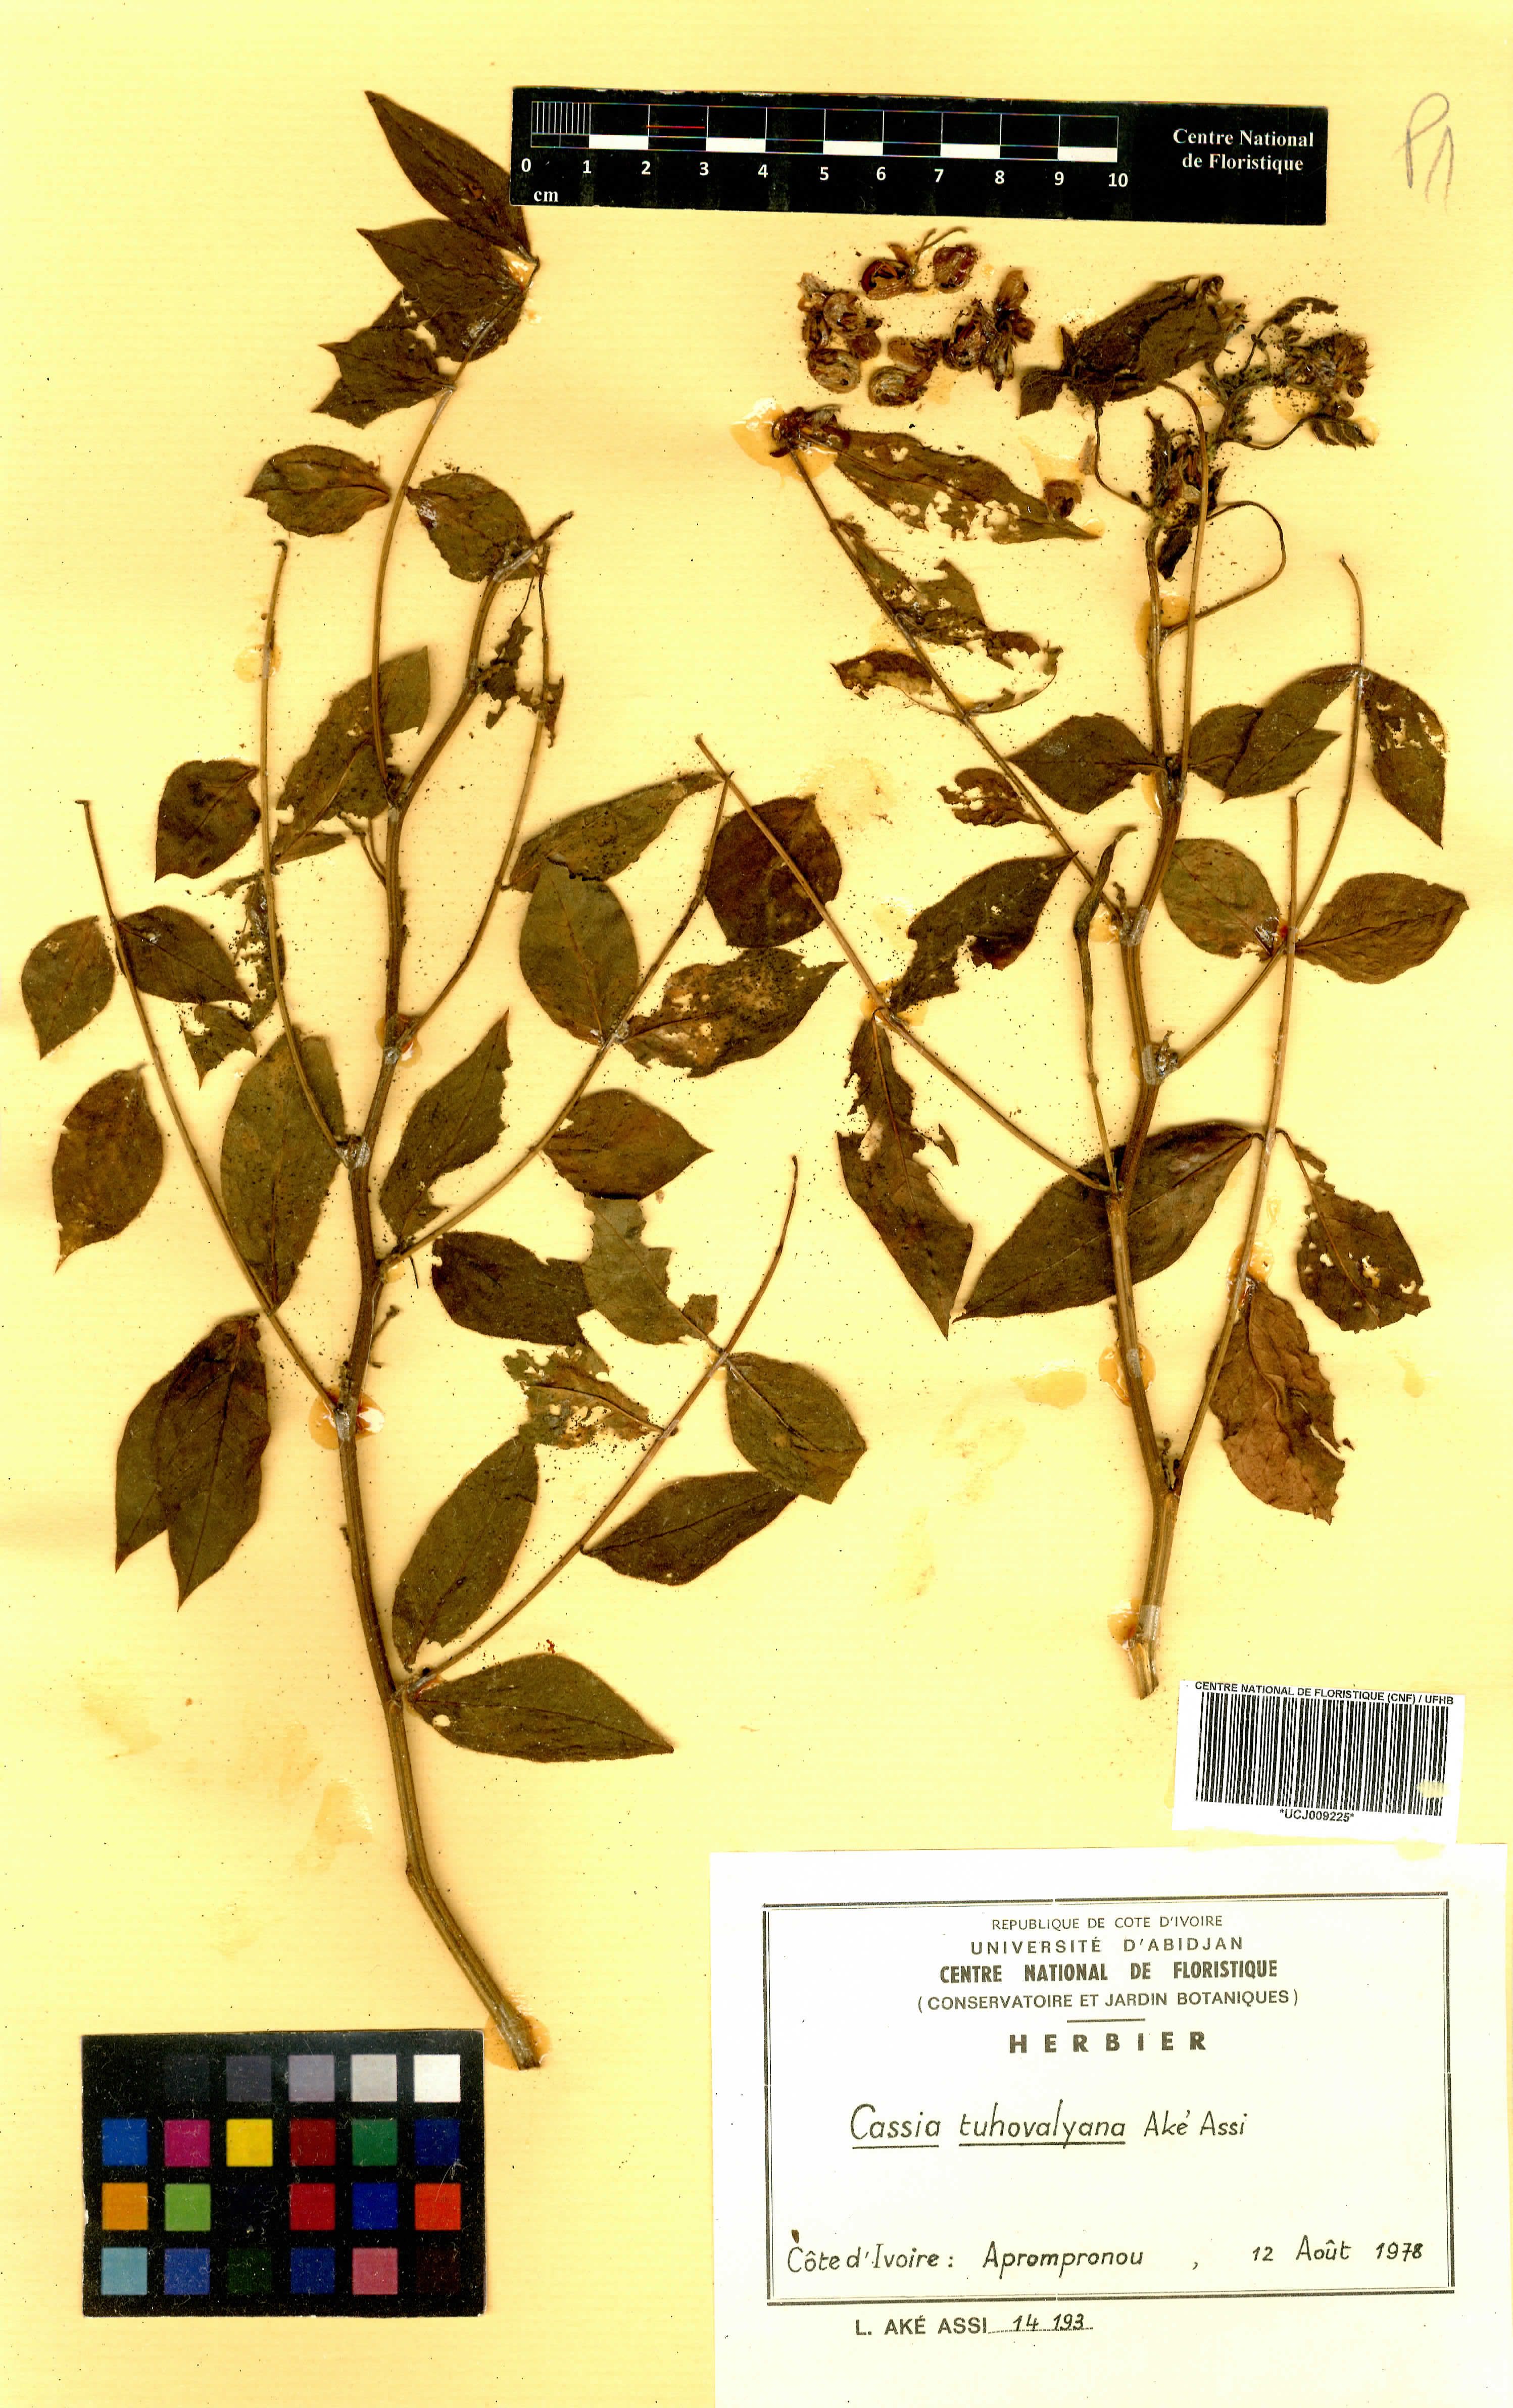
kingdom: Plantae
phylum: Tracheophyta
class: Magnoliopsida
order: Fabales
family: Fabaceae
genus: Senna
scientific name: Senna tuhovalyana
